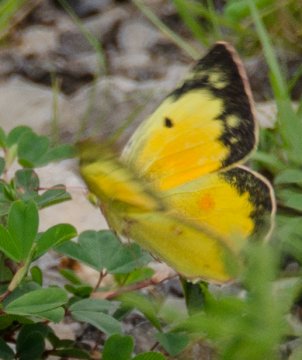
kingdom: Animalia
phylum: Arthropoda
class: Insecta
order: Lepidoptera
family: Pieridae
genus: Colias
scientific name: Colias eurytheme
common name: Orange Sulphur
